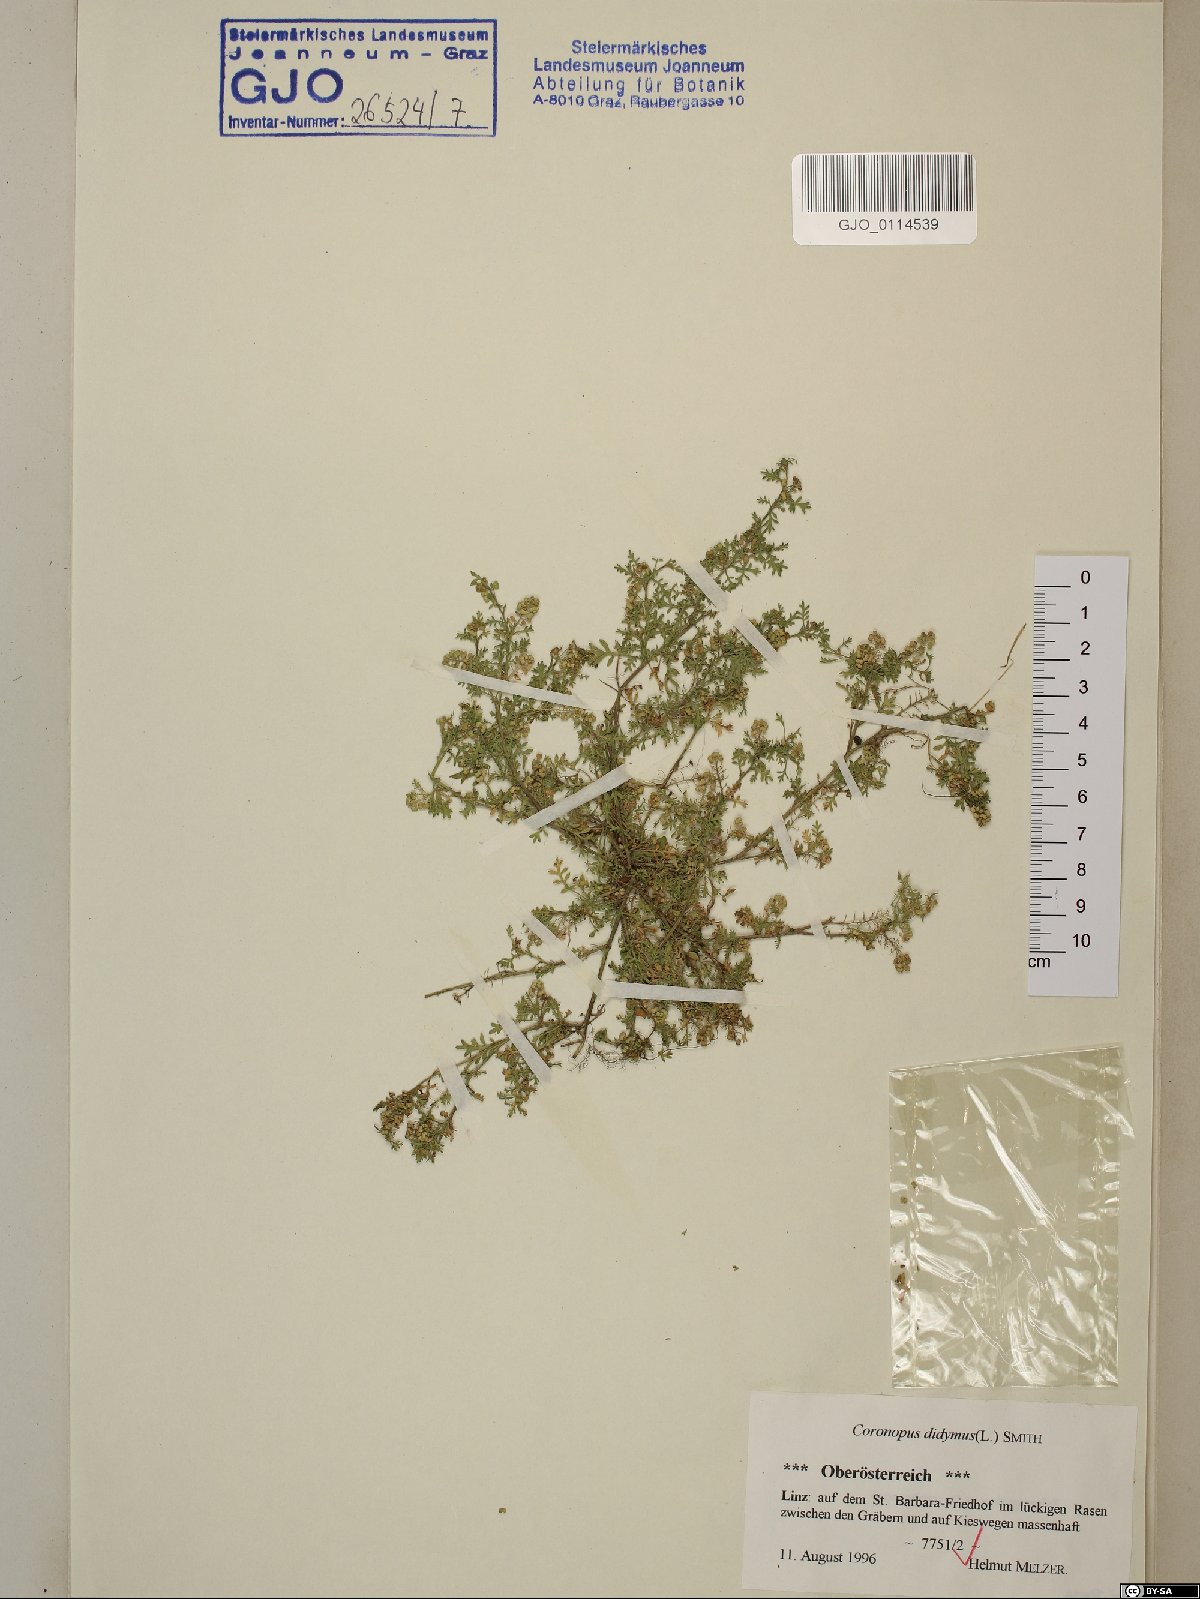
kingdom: Plantae
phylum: Tracheophyta
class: Magnoliopsida
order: Brassicales
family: Brassicaceae
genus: Lepidium
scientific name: Lepidium didymum
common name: Lesser swinecress
